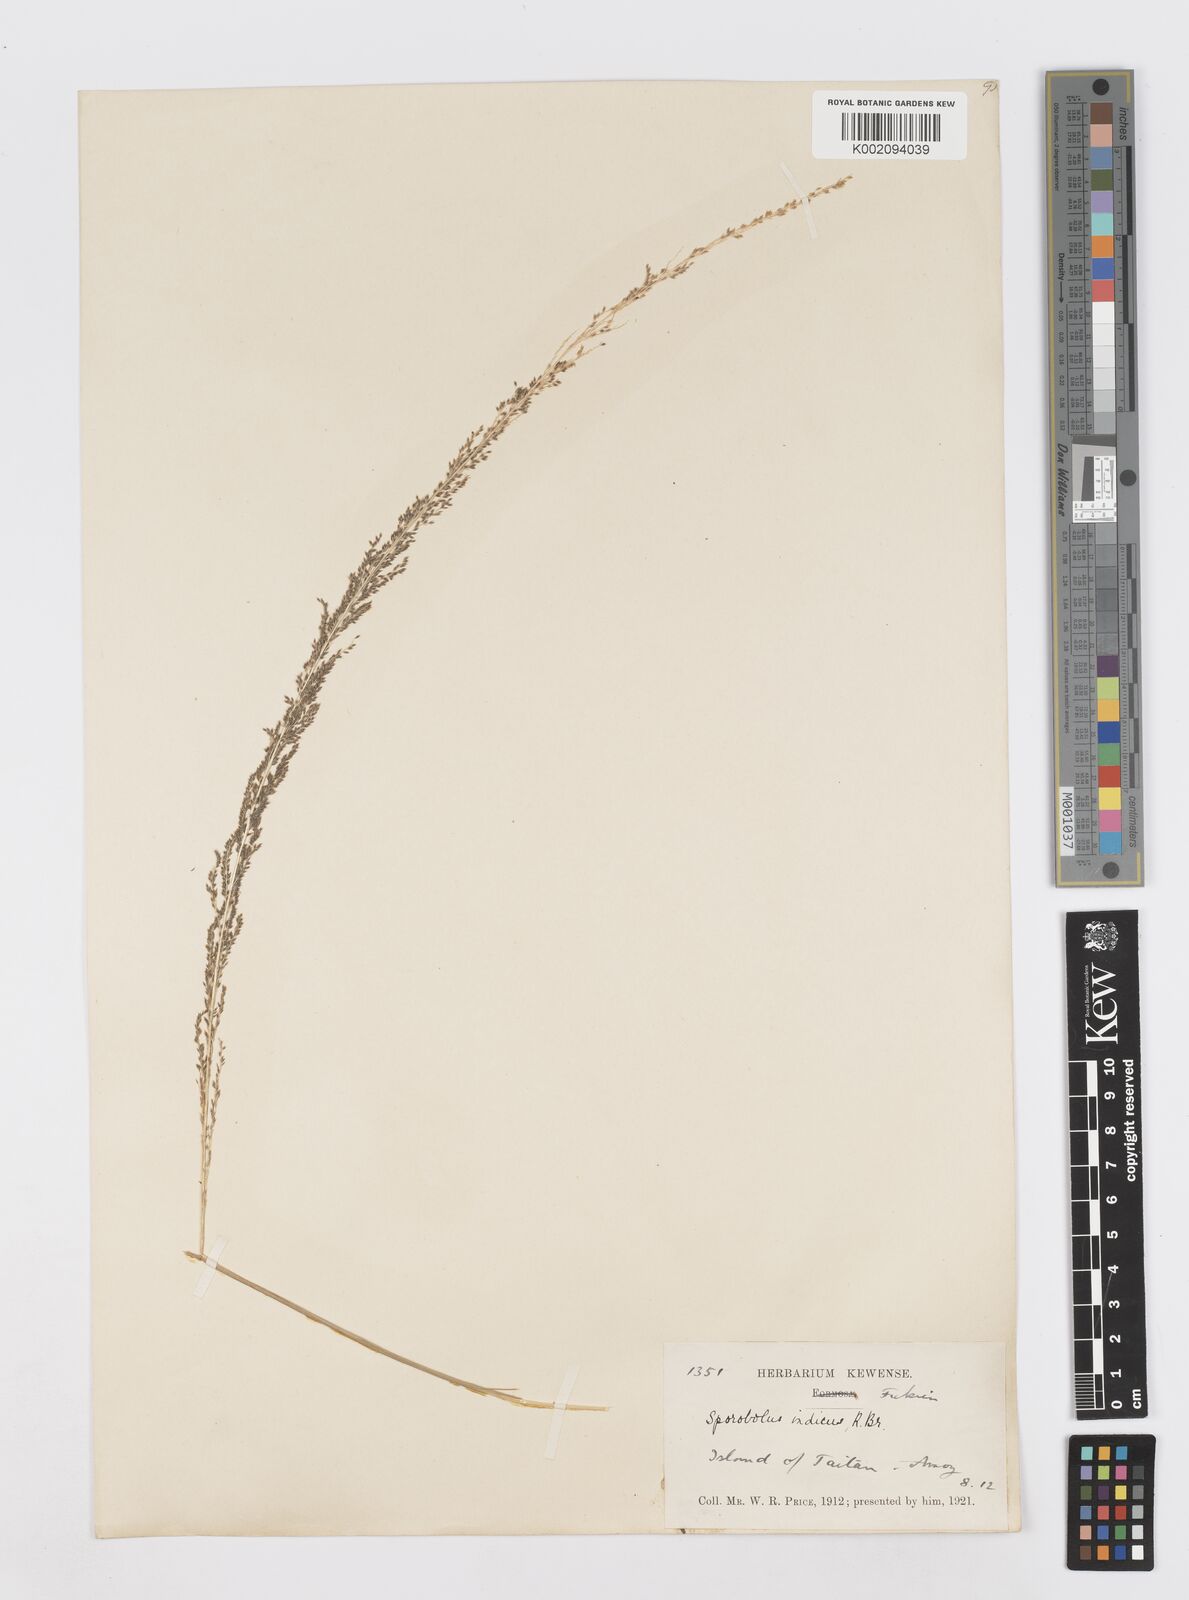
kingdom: Plantae
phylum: Tracheophyta
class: Liliopsida
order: Poales
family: Poaceae
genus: Sporobolus
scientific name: Sporobolus fertilis
